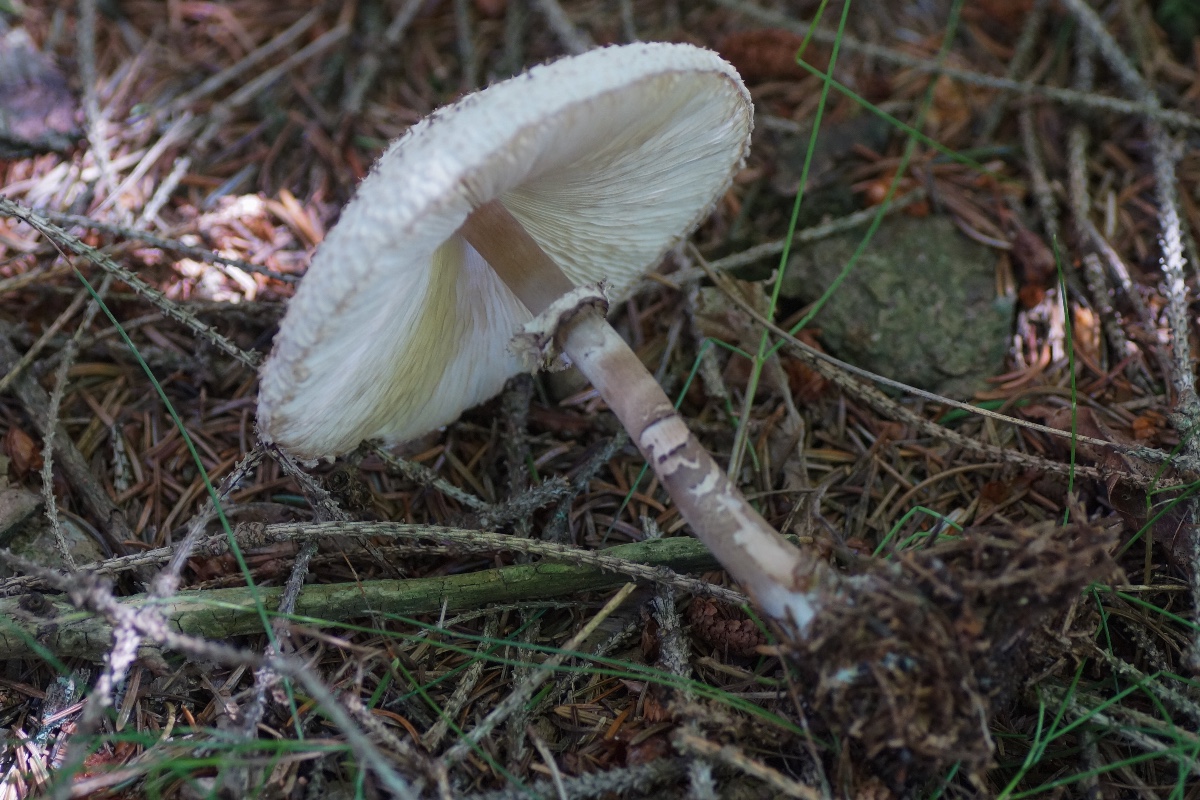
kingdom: Fungi
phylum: Basidiomycota
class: Agaricomycetes
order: Agaricales
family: Agaricaceae
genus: Leucoagaricus
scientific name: Leucoagaricus nympharum
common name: gran-silkehat
